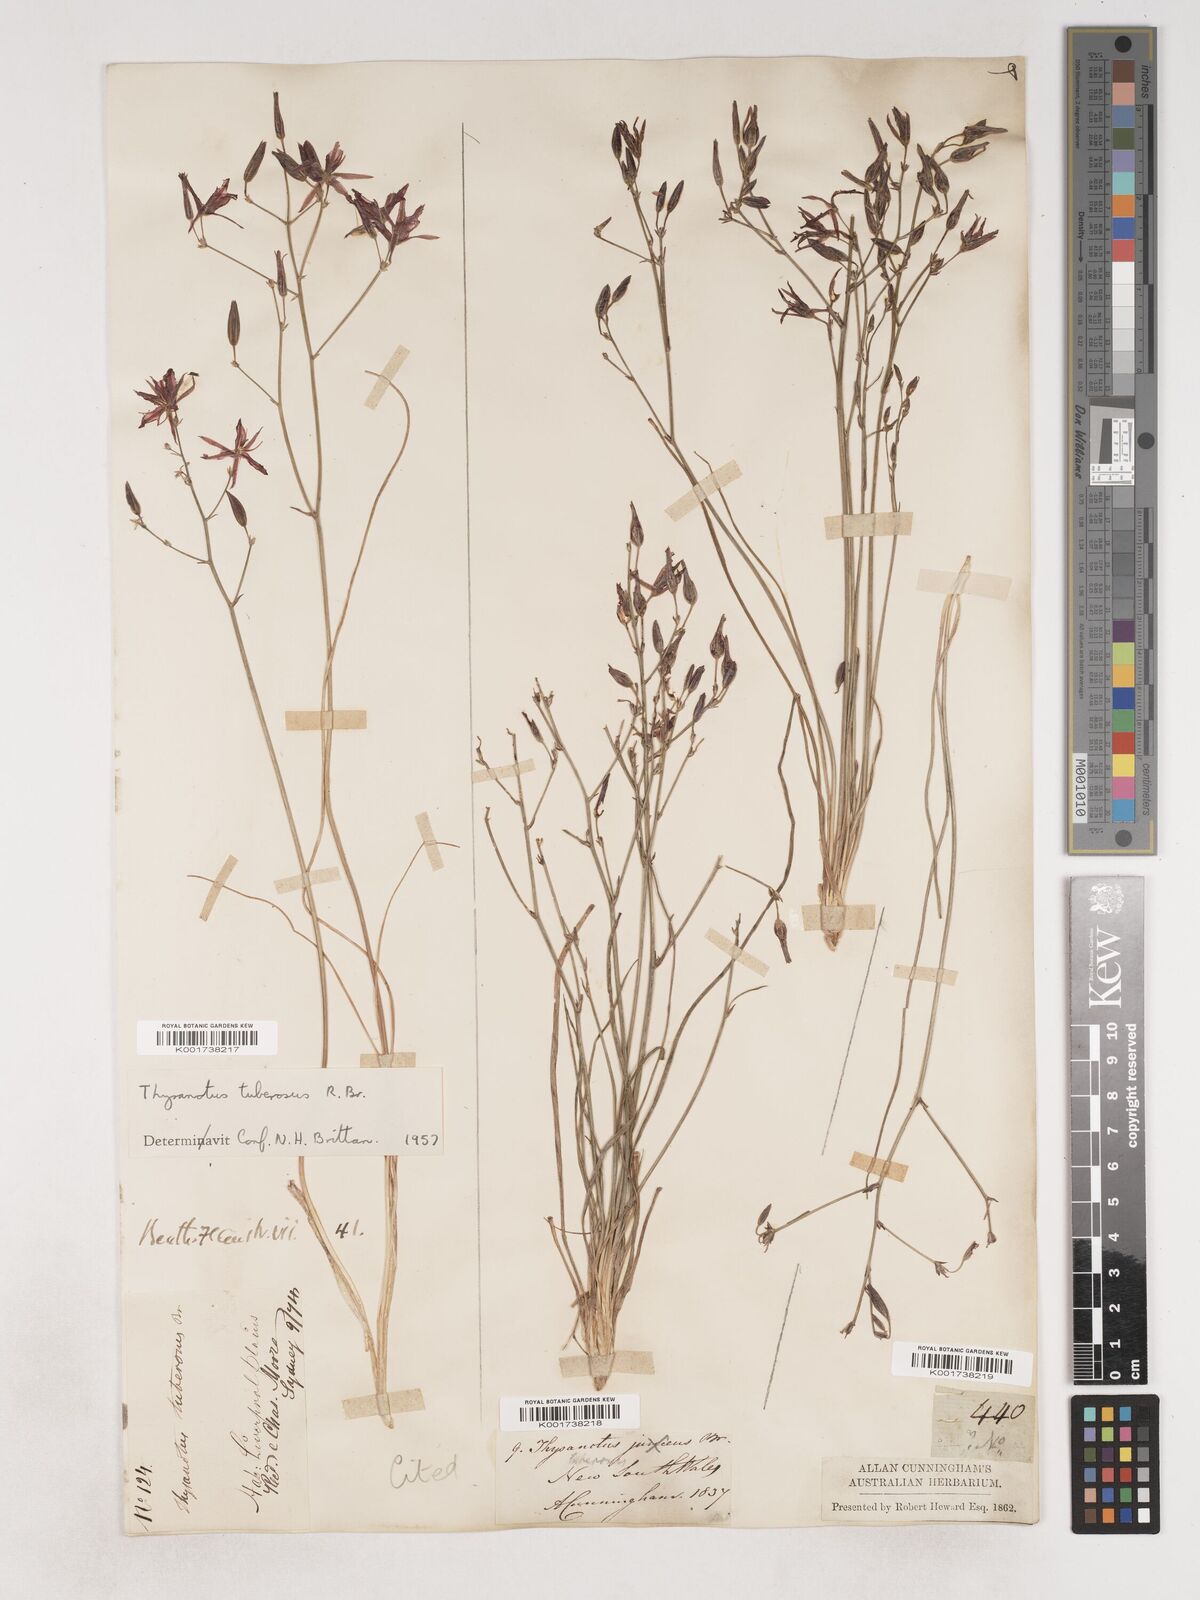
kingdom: Plantae
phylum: Tracheophyta
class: Liliopsida
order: Asparagales
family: Asparagaceae
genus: Thysanotus
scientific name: Thysanotus tuberosus
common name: Common fringed-lily
